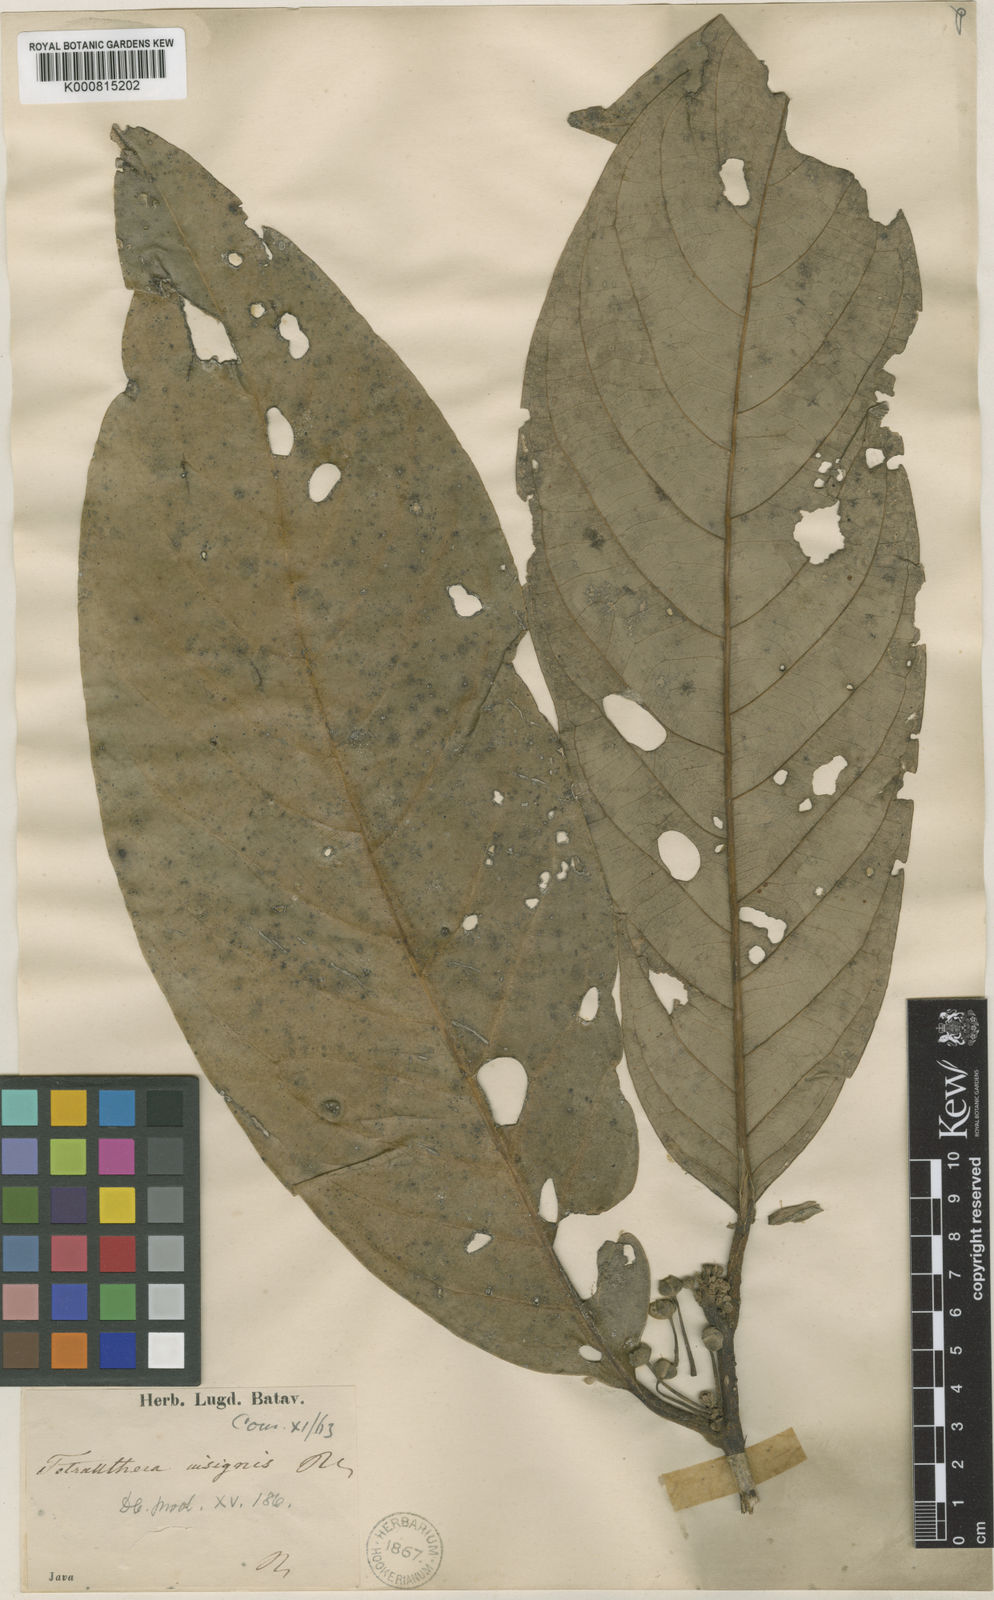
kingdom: Plantae
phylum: Tracheophyta
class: Magnoliopsida
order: Laurales
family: Lauraceae
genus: Litsea
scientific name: Litsea insignis
